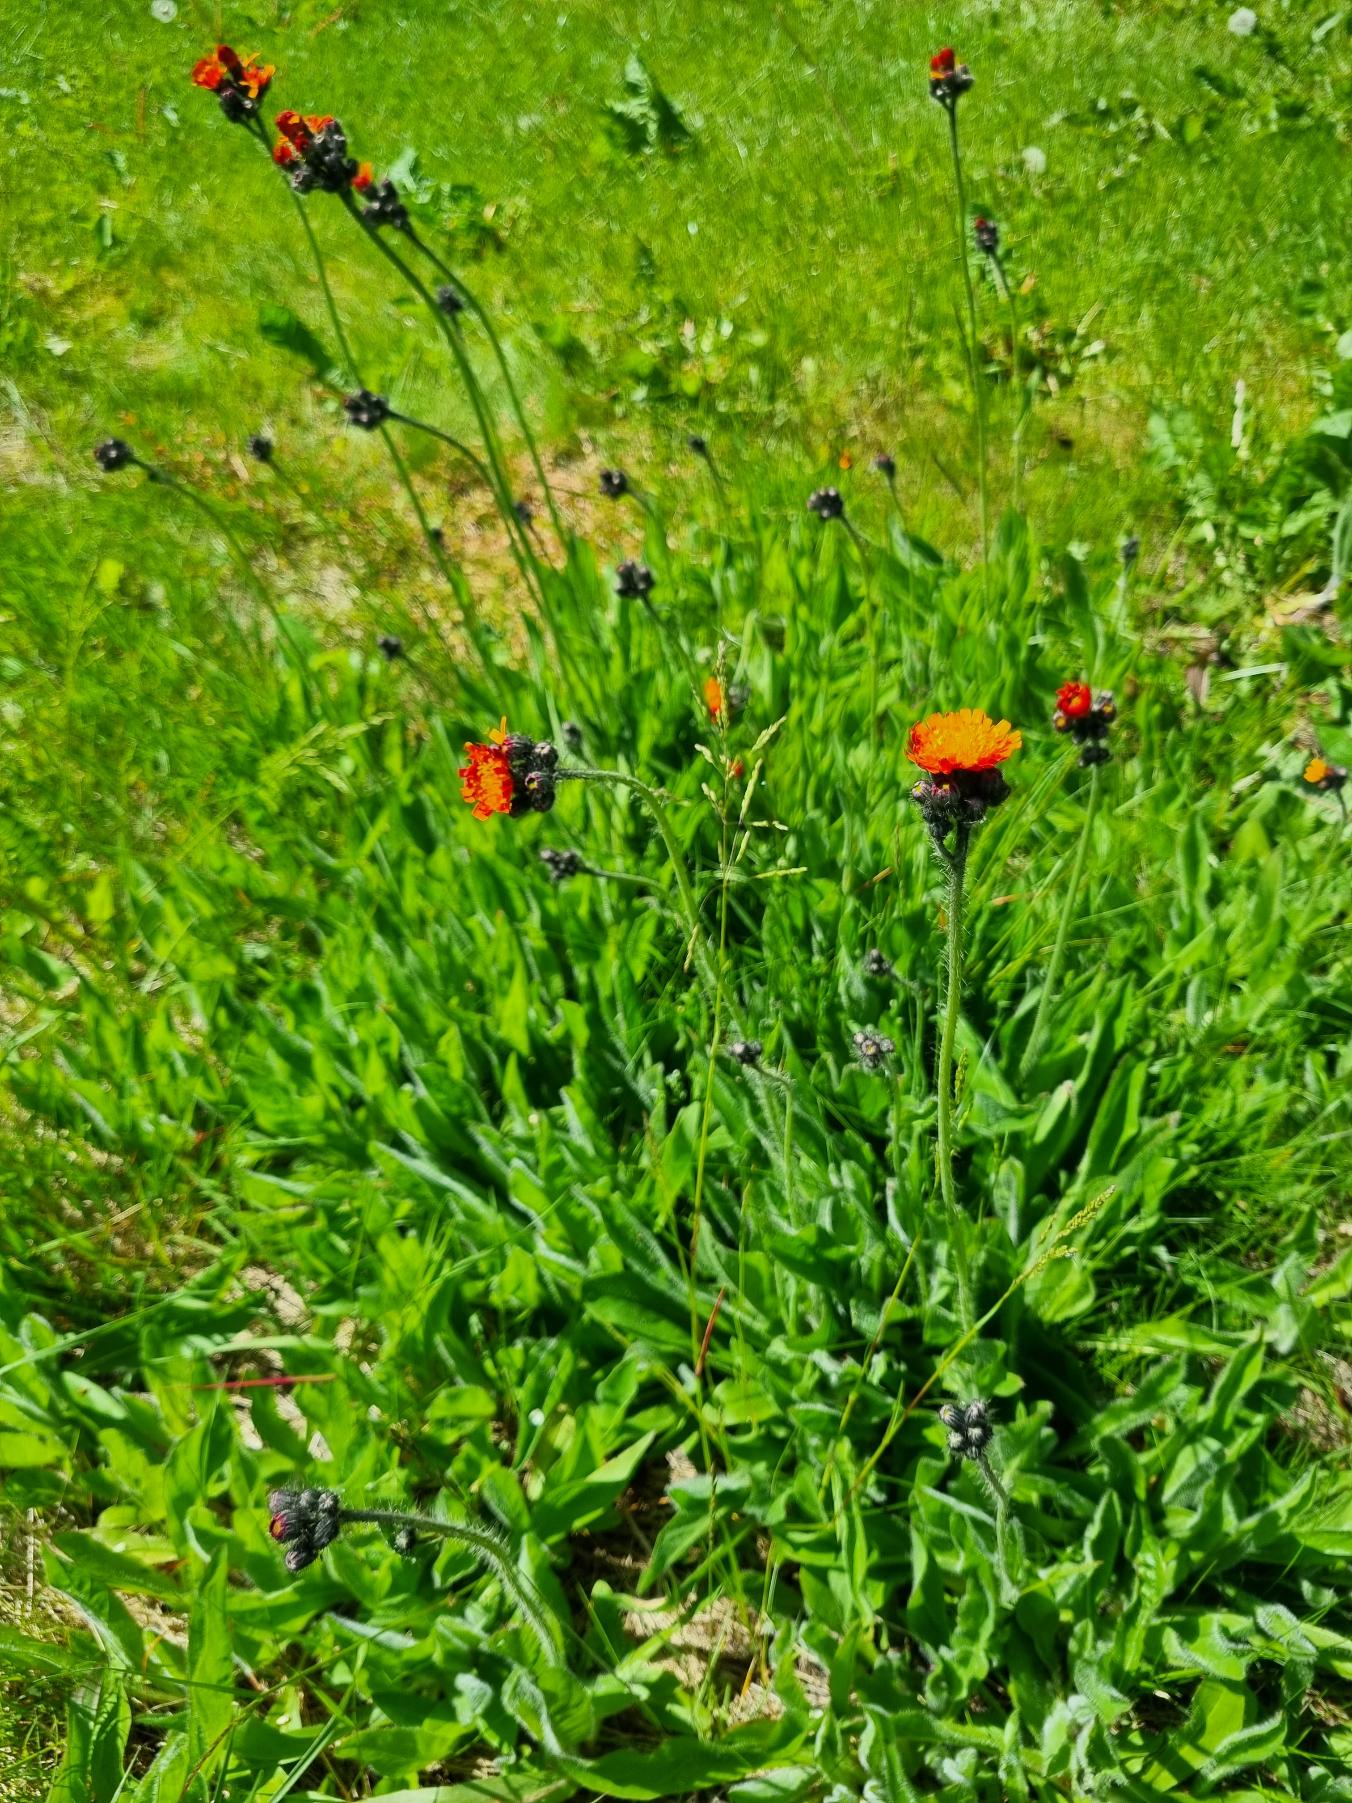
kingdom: Plantae
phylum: Tracheophyta
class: Magnoliopsida
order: Asterales
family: Asteraceae
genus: Pilosella
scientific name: Pilosella aurantiaca
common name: Pomerans-høgeurt
